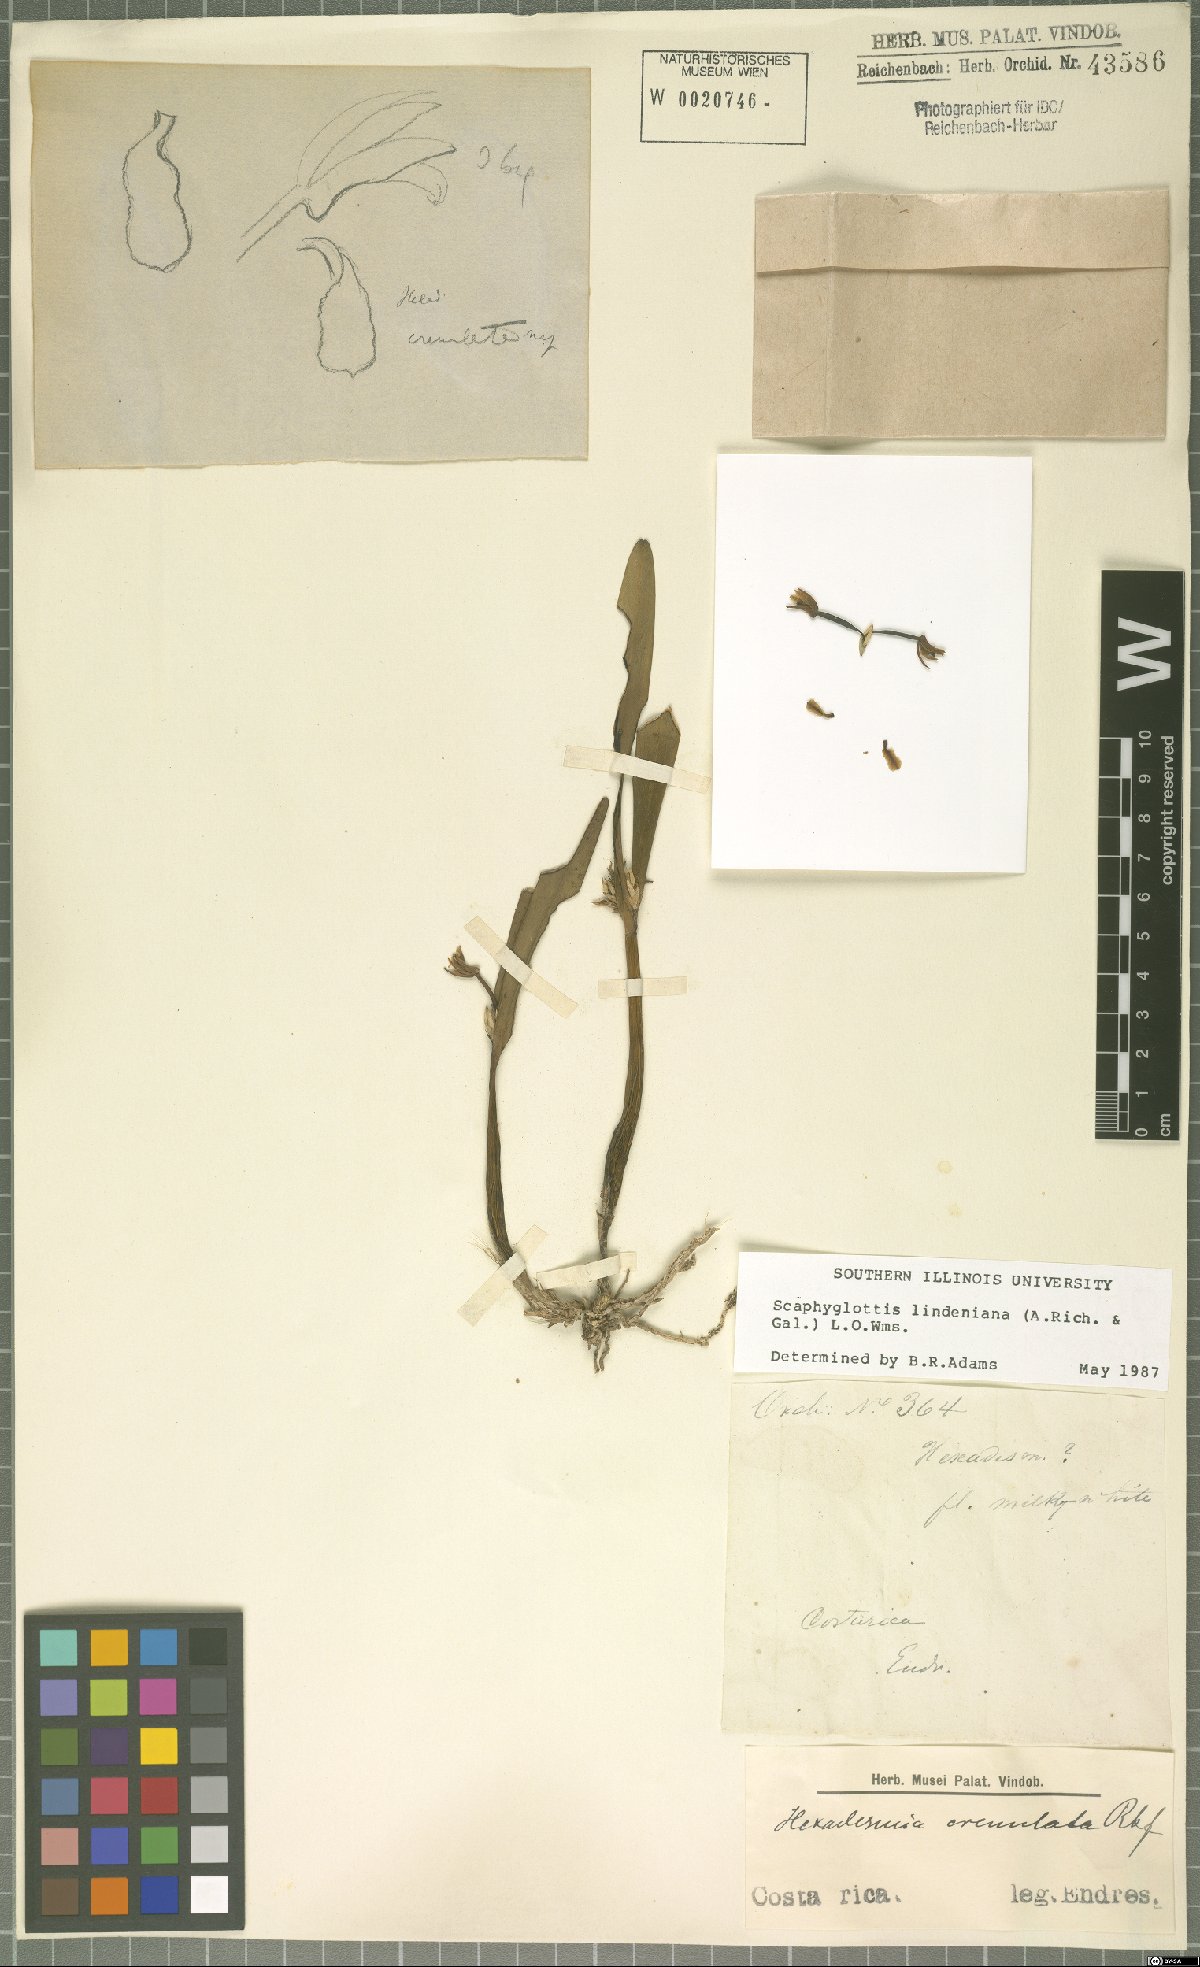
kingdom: Plantae
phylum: Tracheophyta
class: Liliopsida
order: Asparagales
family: Orchidaceae
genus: Scaphyglottis
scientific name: Scaphyglottis lindeniana
